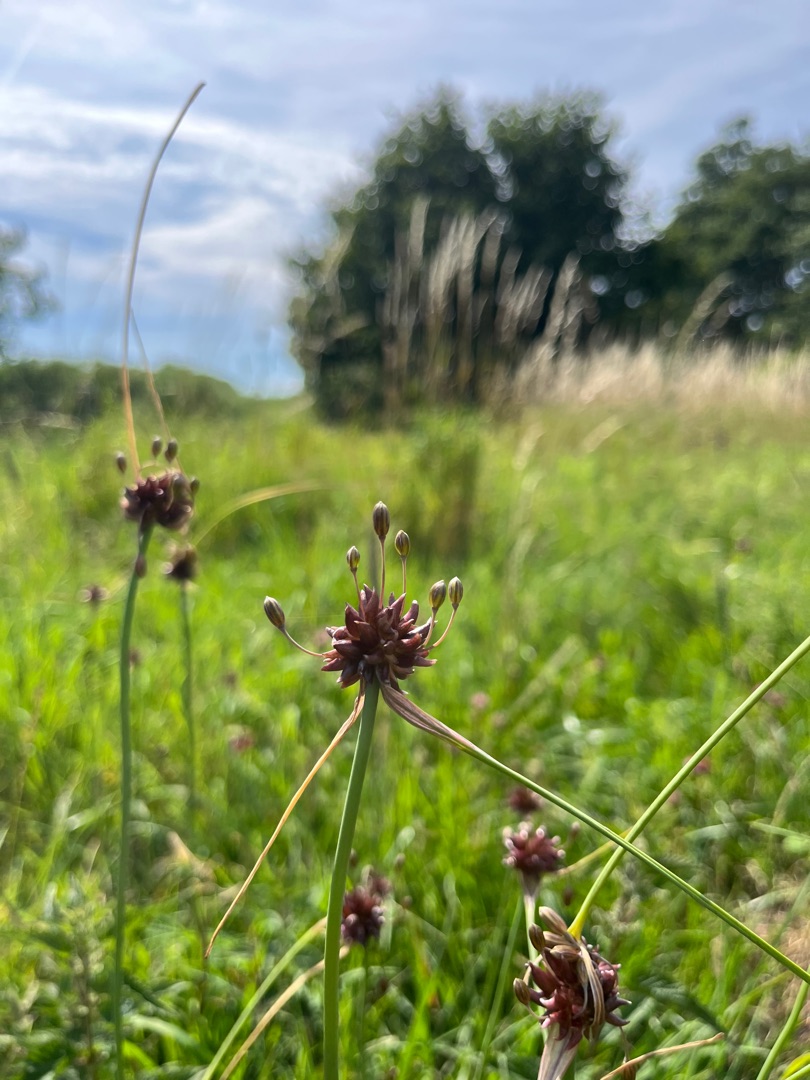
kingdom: Plantae
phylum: Tracheophyta
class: Liliopsida
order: Asparagales
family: Amaryllidaceae
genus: Allium
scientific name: Allium oleraceum
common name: Vild løg
